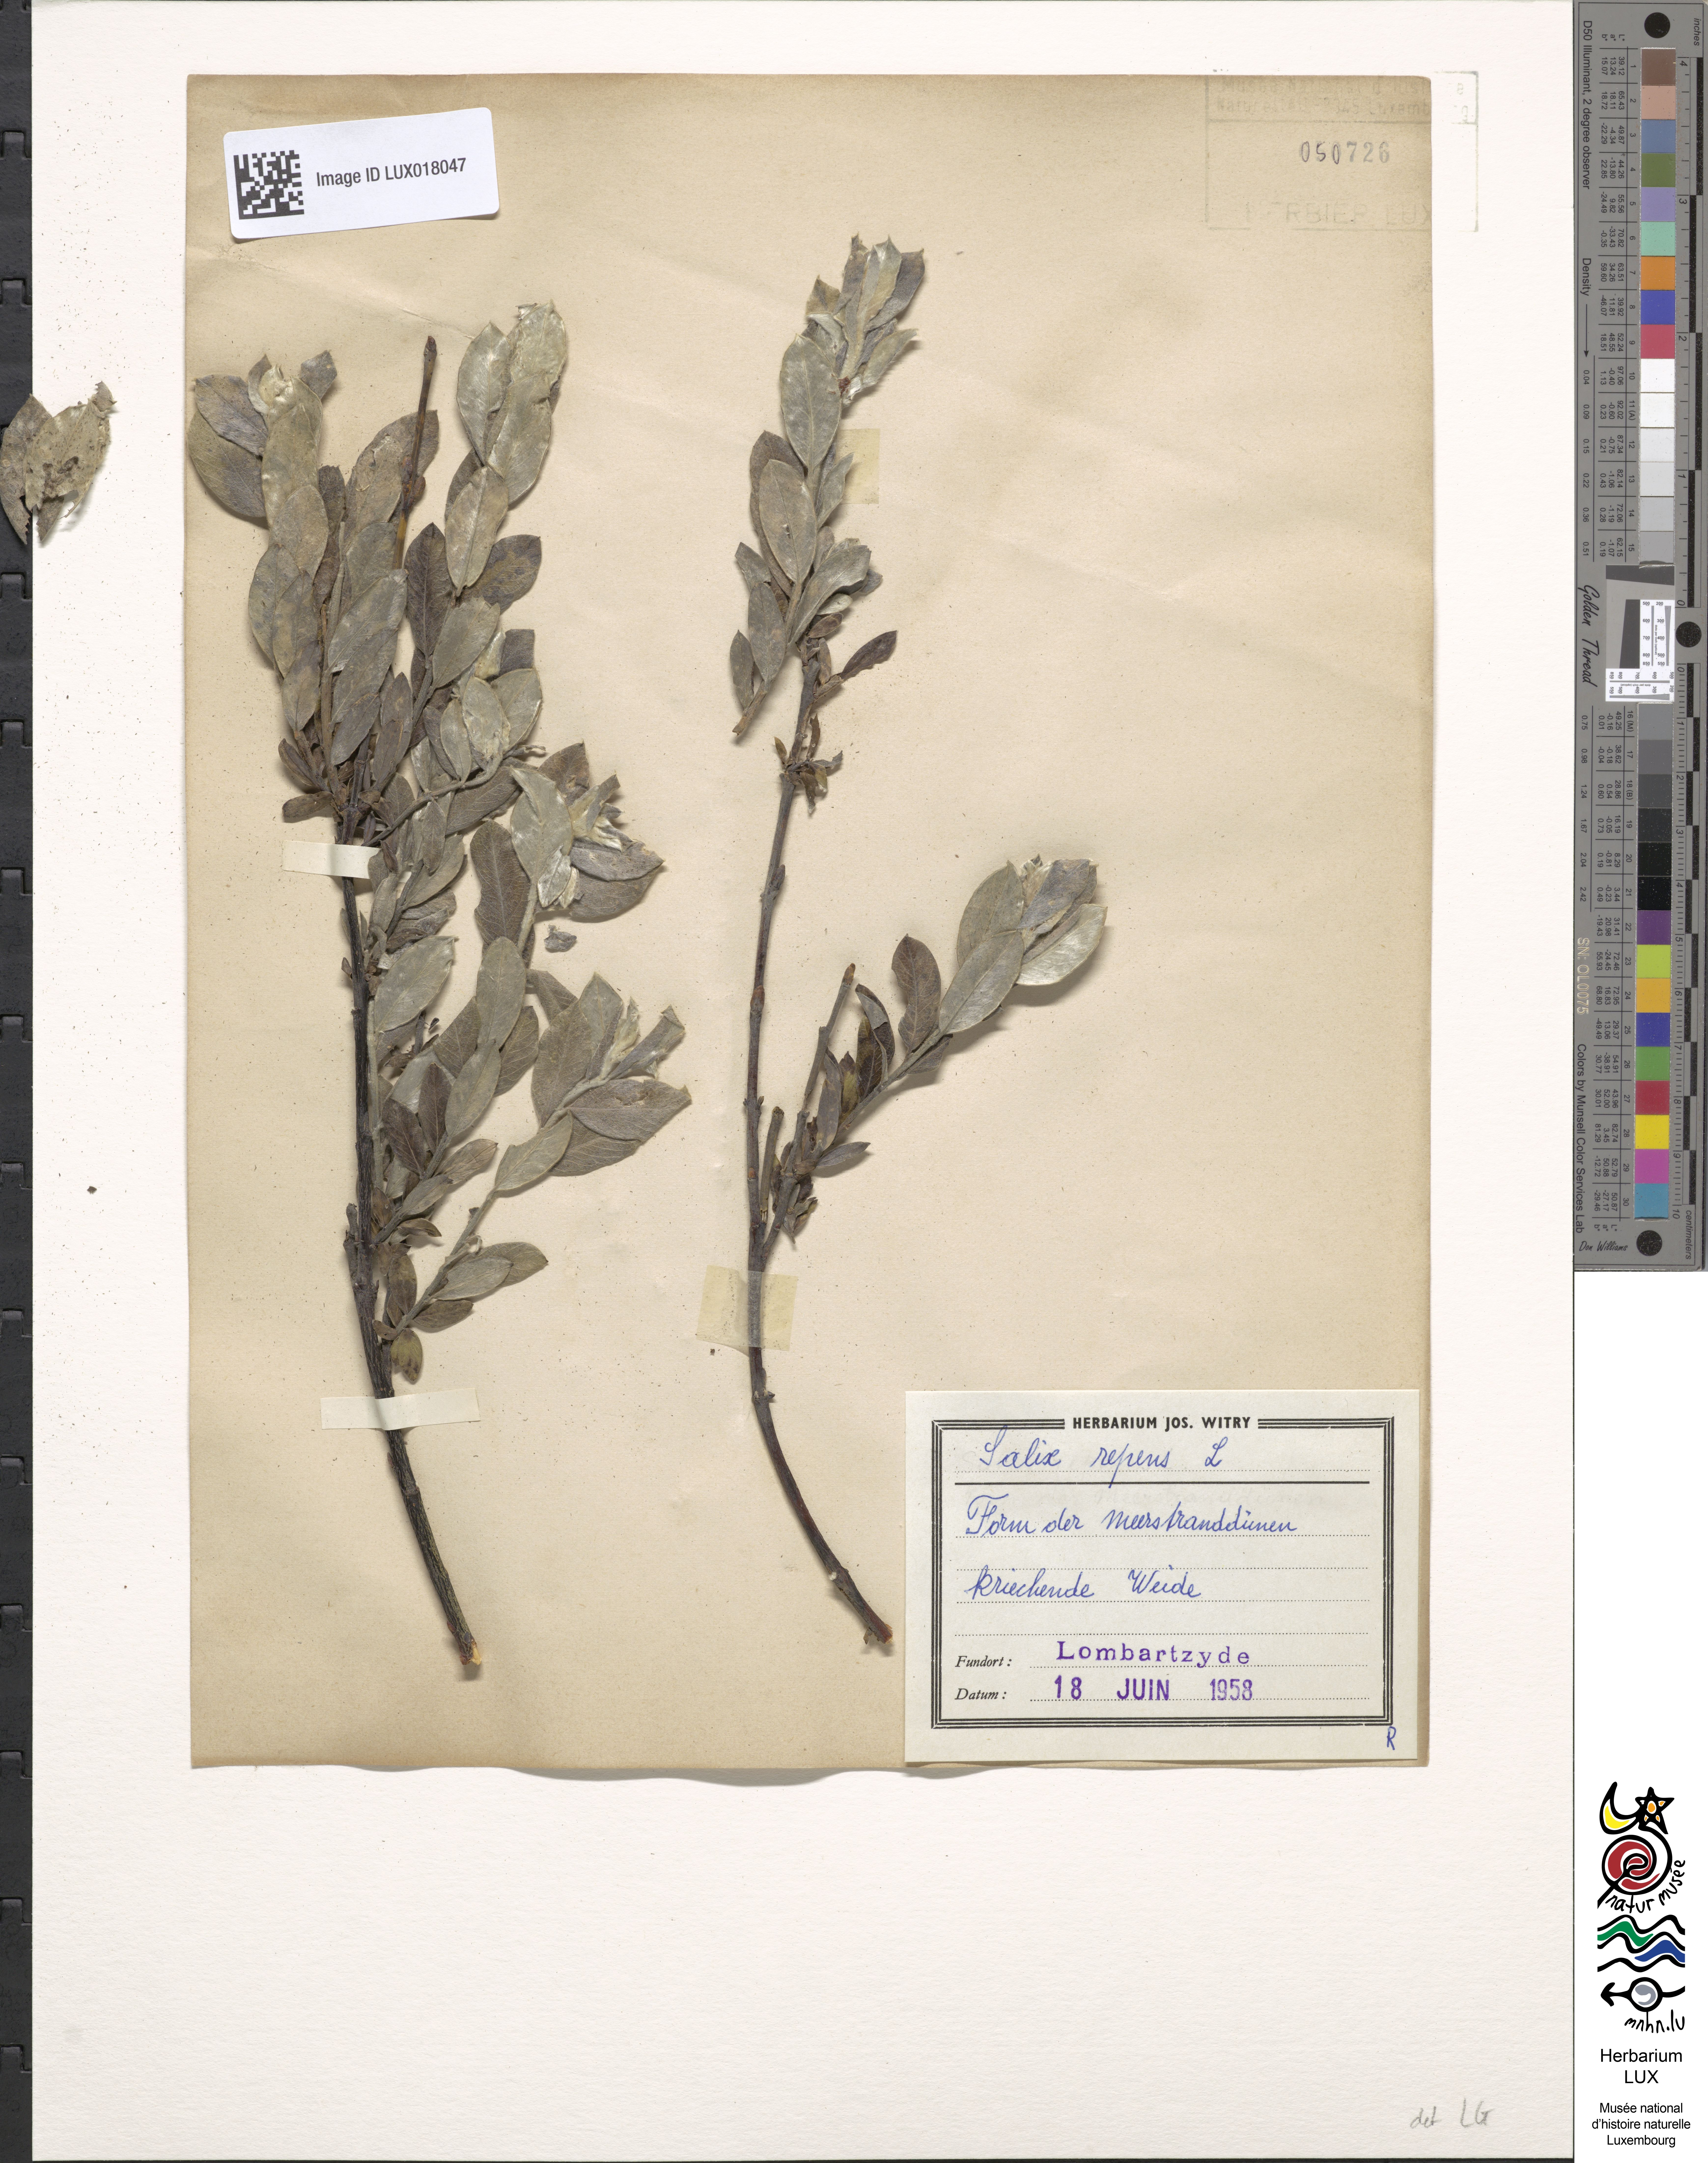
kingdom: Plantae
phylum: Tracheophyta
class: Magnoliopsida
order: Malpighiales
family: Salicaceae
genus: Salix
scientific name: Salix repens
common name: Creeping willow
